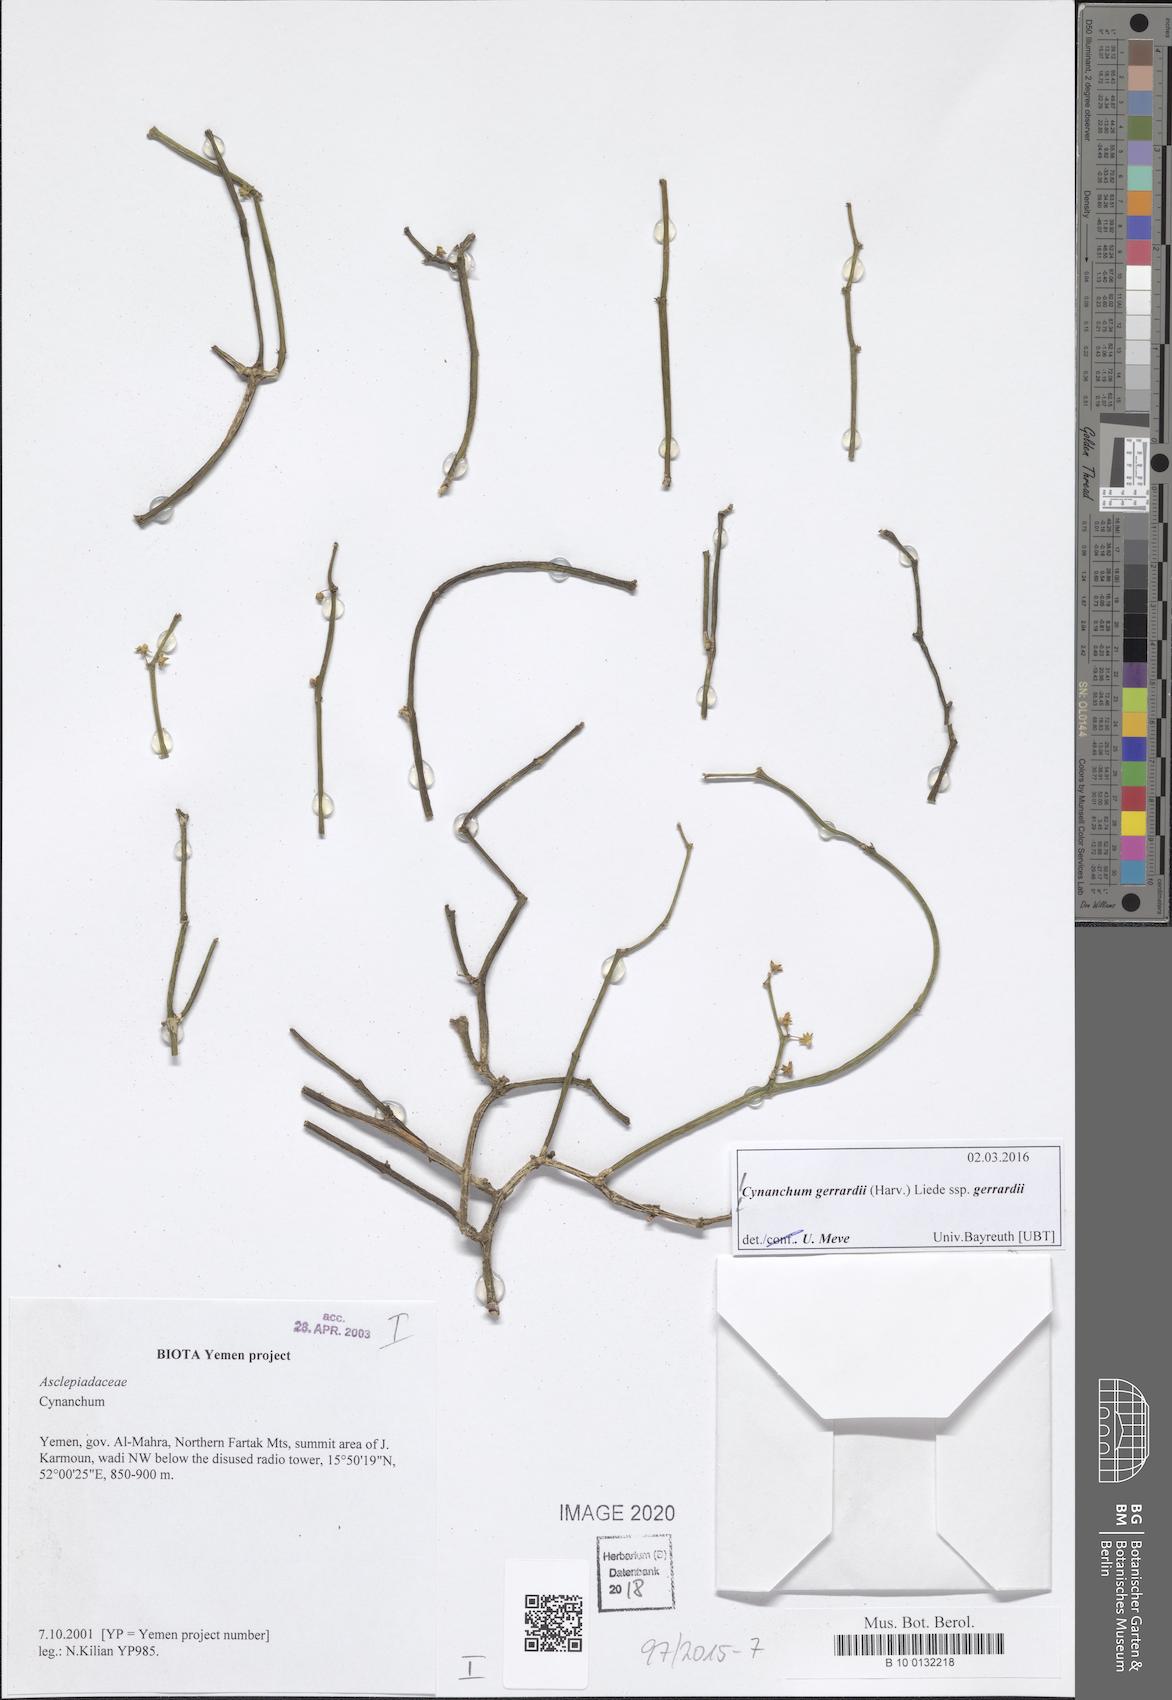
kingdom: Plantae
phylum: Tracheophyta
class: Magnoliopsida
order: Gentianales
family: Apocynaceae
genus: Cynanchum
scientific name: Cynanchum gerrardi
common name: Swallow-wort
